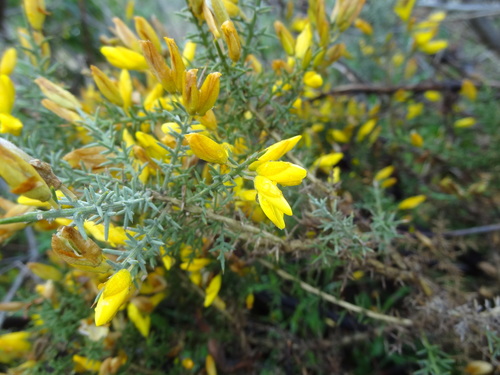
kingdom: Plantae
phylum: Tracheophyta
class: Magnoliopsida
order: Fabales
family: Fabaceae
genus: Ulex
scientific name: Ulex eriocladus
